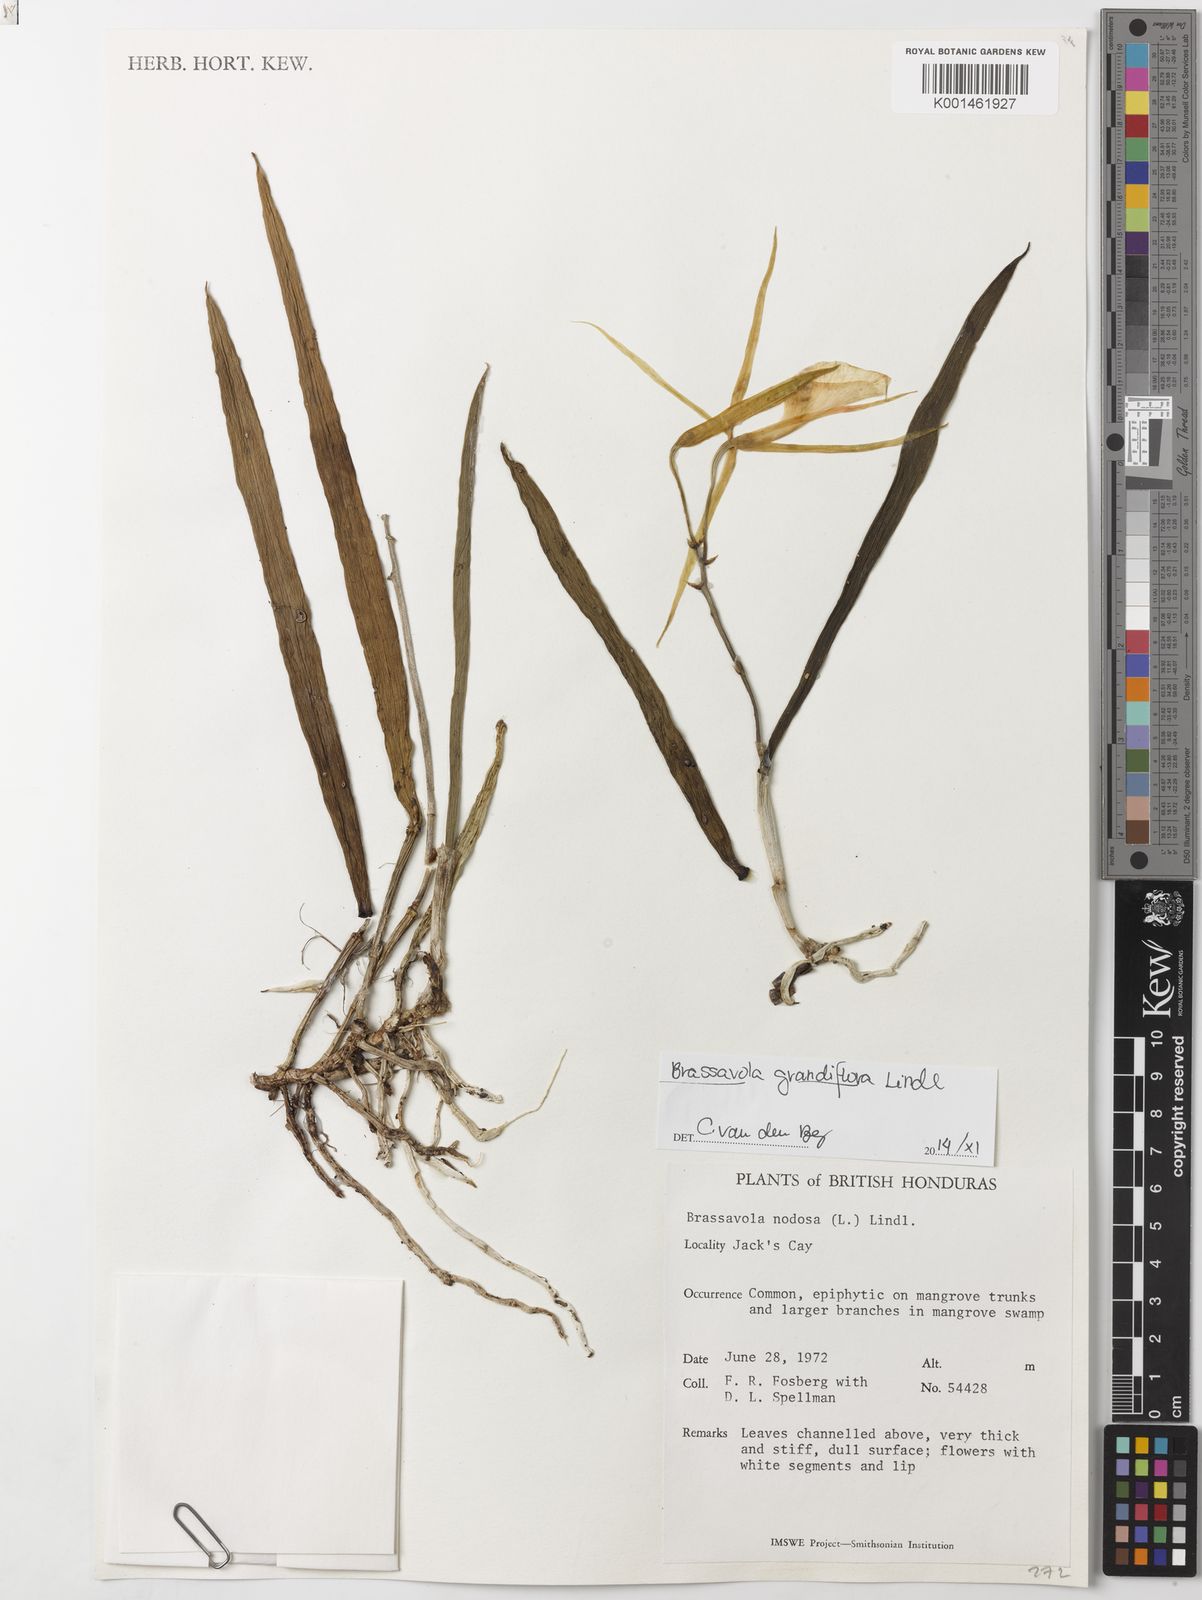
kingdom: Plantae
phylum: Tracheophyta
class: Liliopsida
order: Asparagales
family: Orchidaceae
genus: Brassavola
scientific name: Brassavola nodosa
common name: Lady of the night
